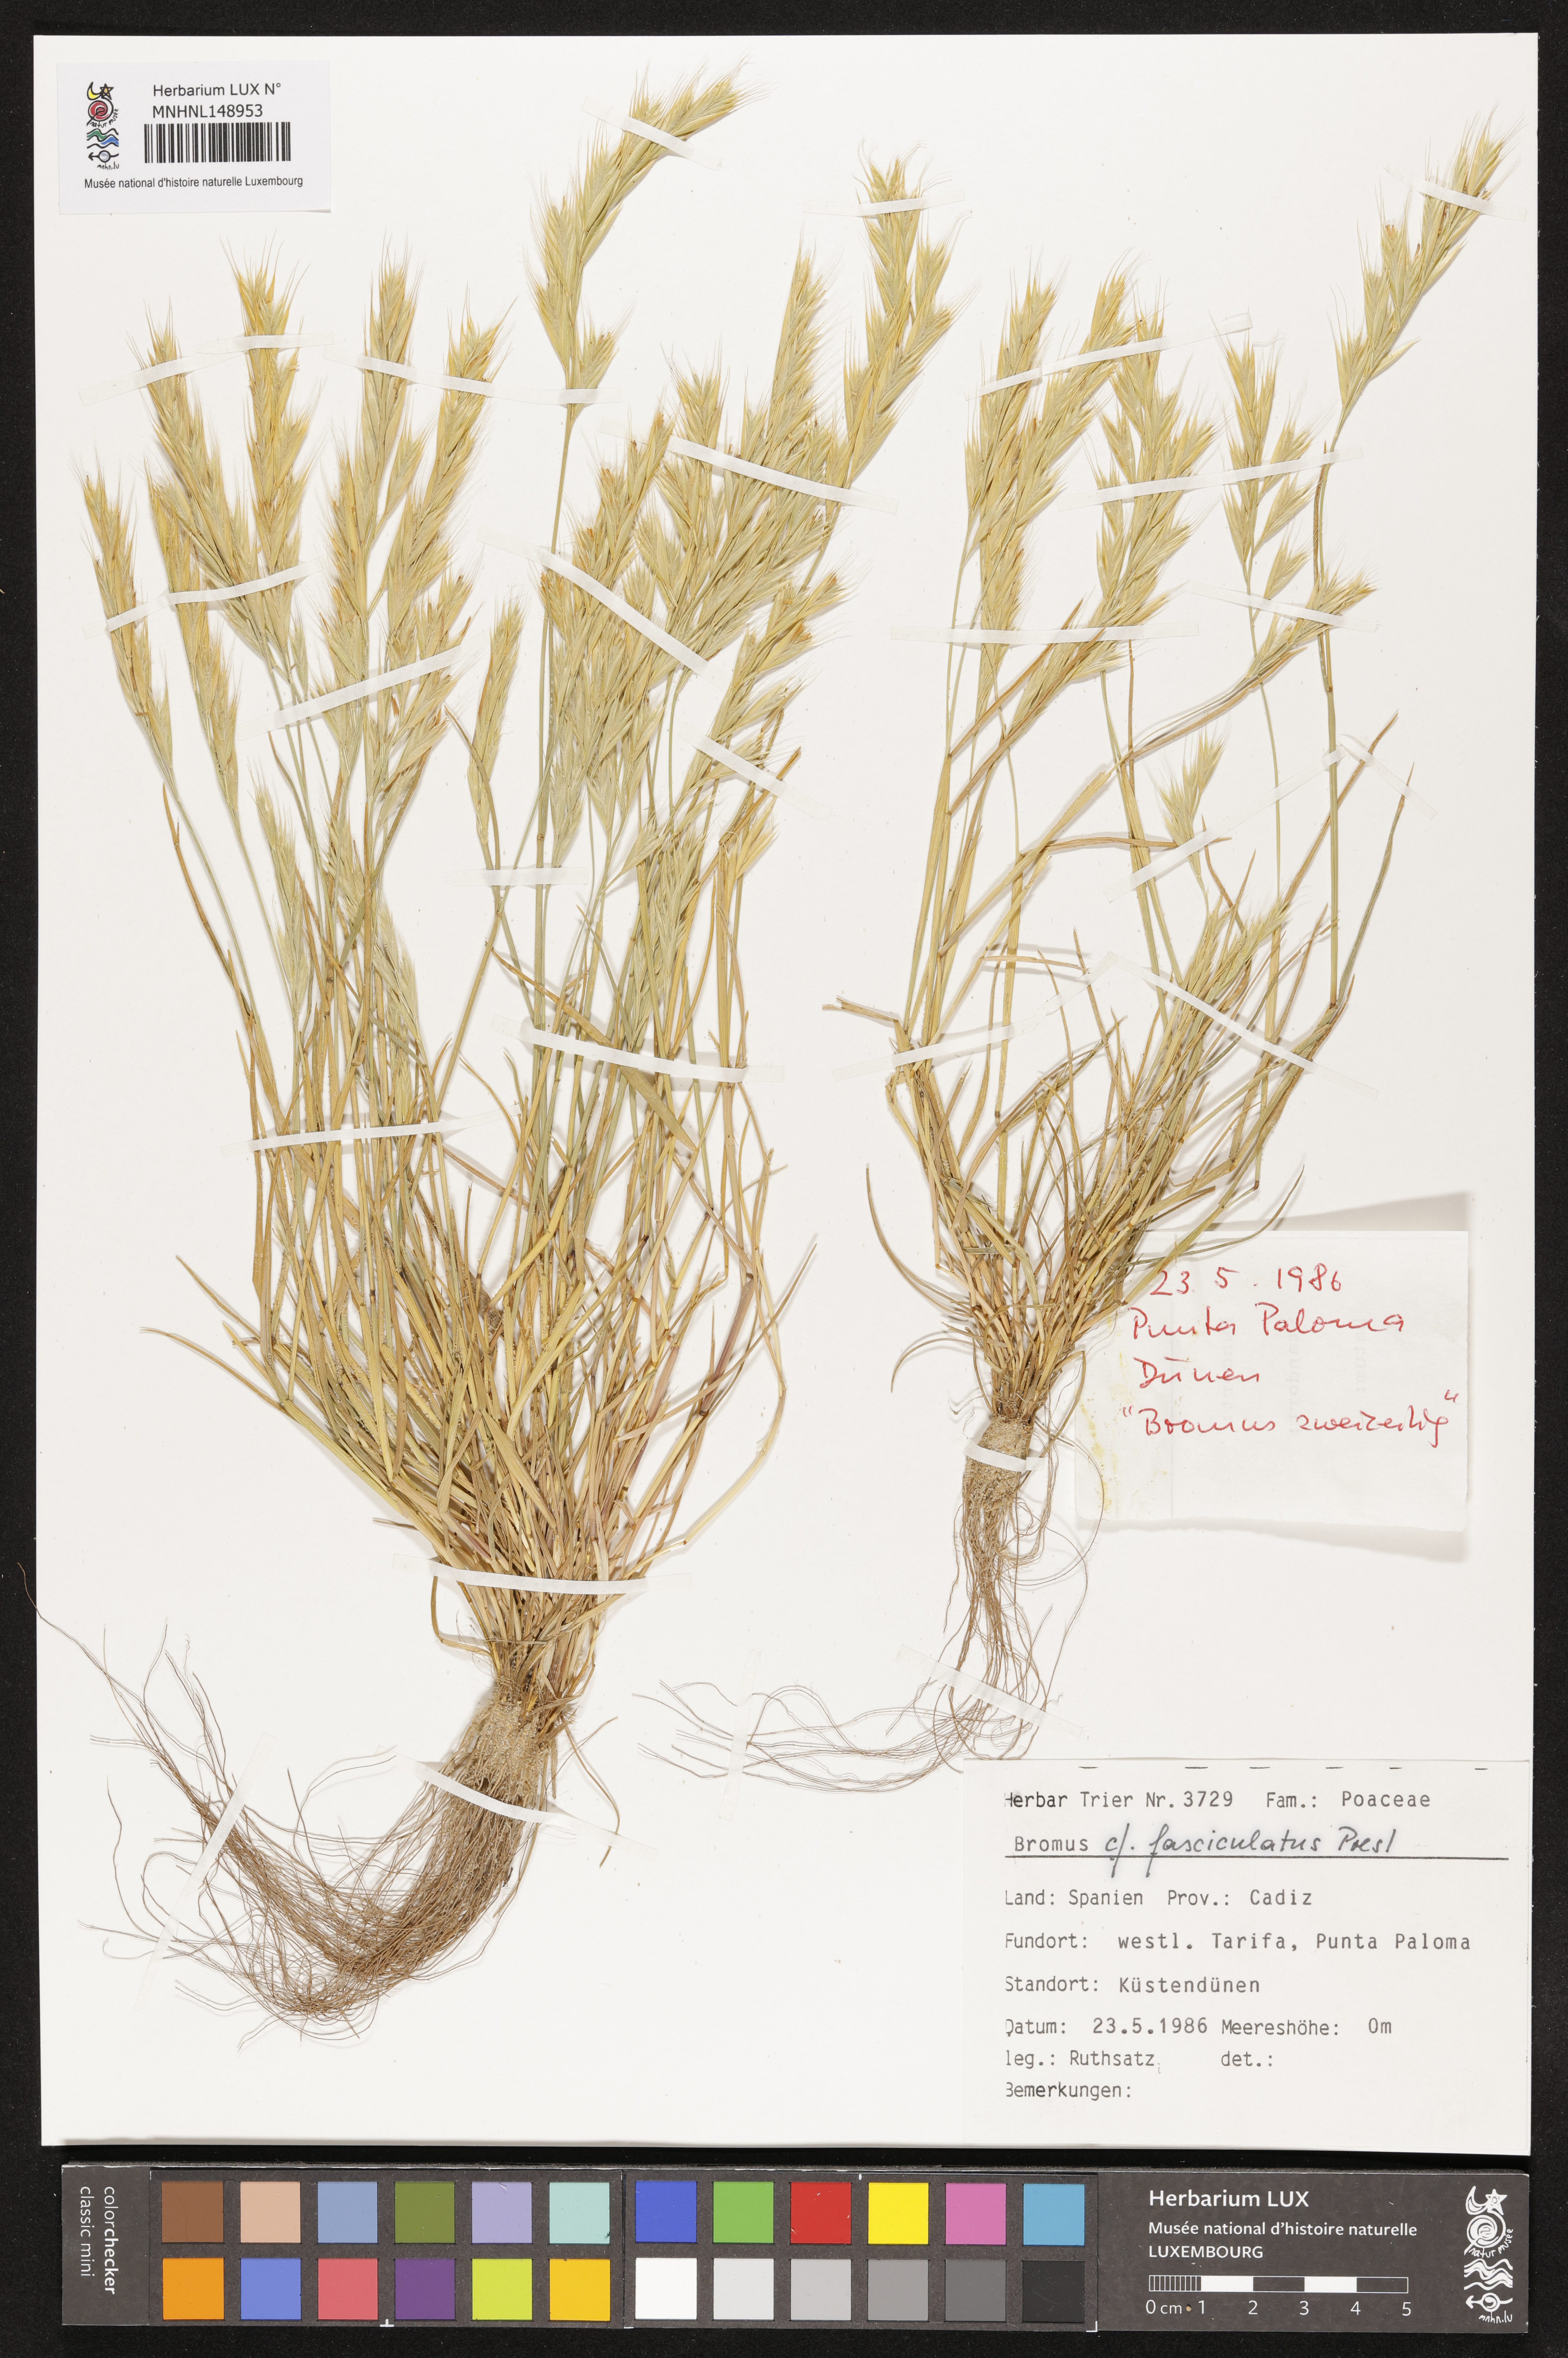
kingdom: Plantae
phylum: Tracheophyta
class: Liliopsida
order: Poales
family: Poaceae
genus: Bromus
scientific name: Bromus fasciculatus
